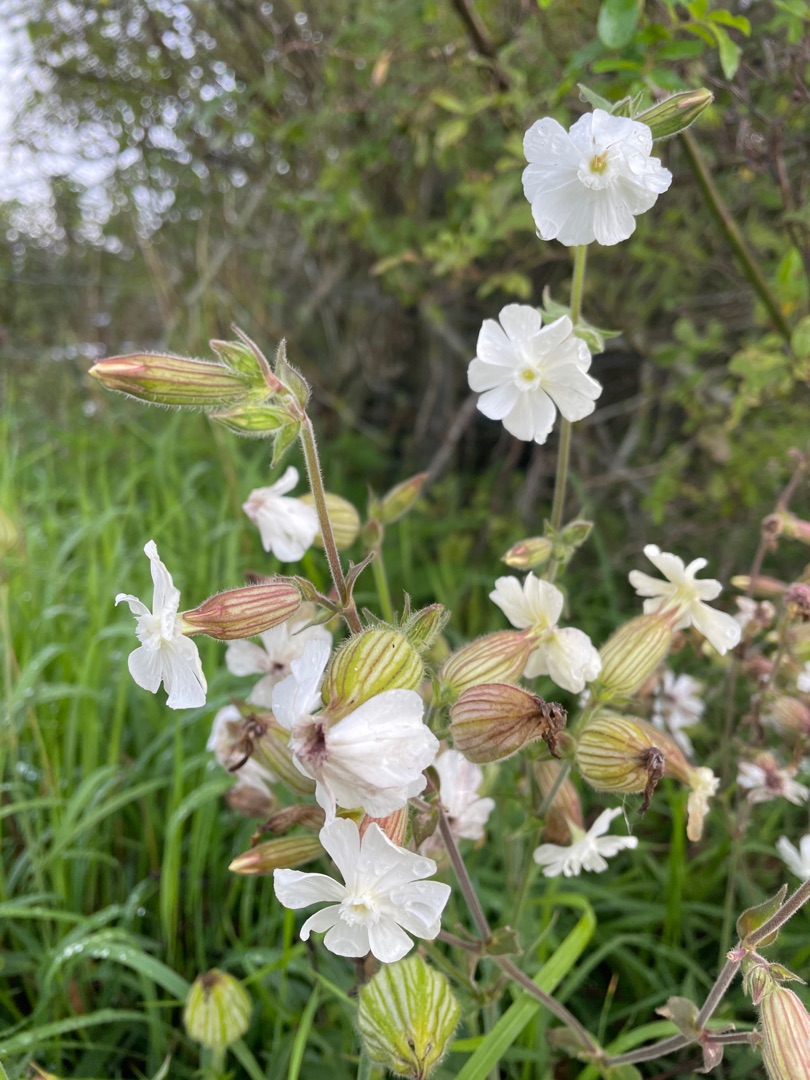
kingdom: Plantae
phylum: Tracheophyta
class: Magnoliopsida
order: Caryophyllales
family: Caryophyllaceae
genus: Silene
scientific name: Silene latifolia
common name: Aftenpragtstjerne
